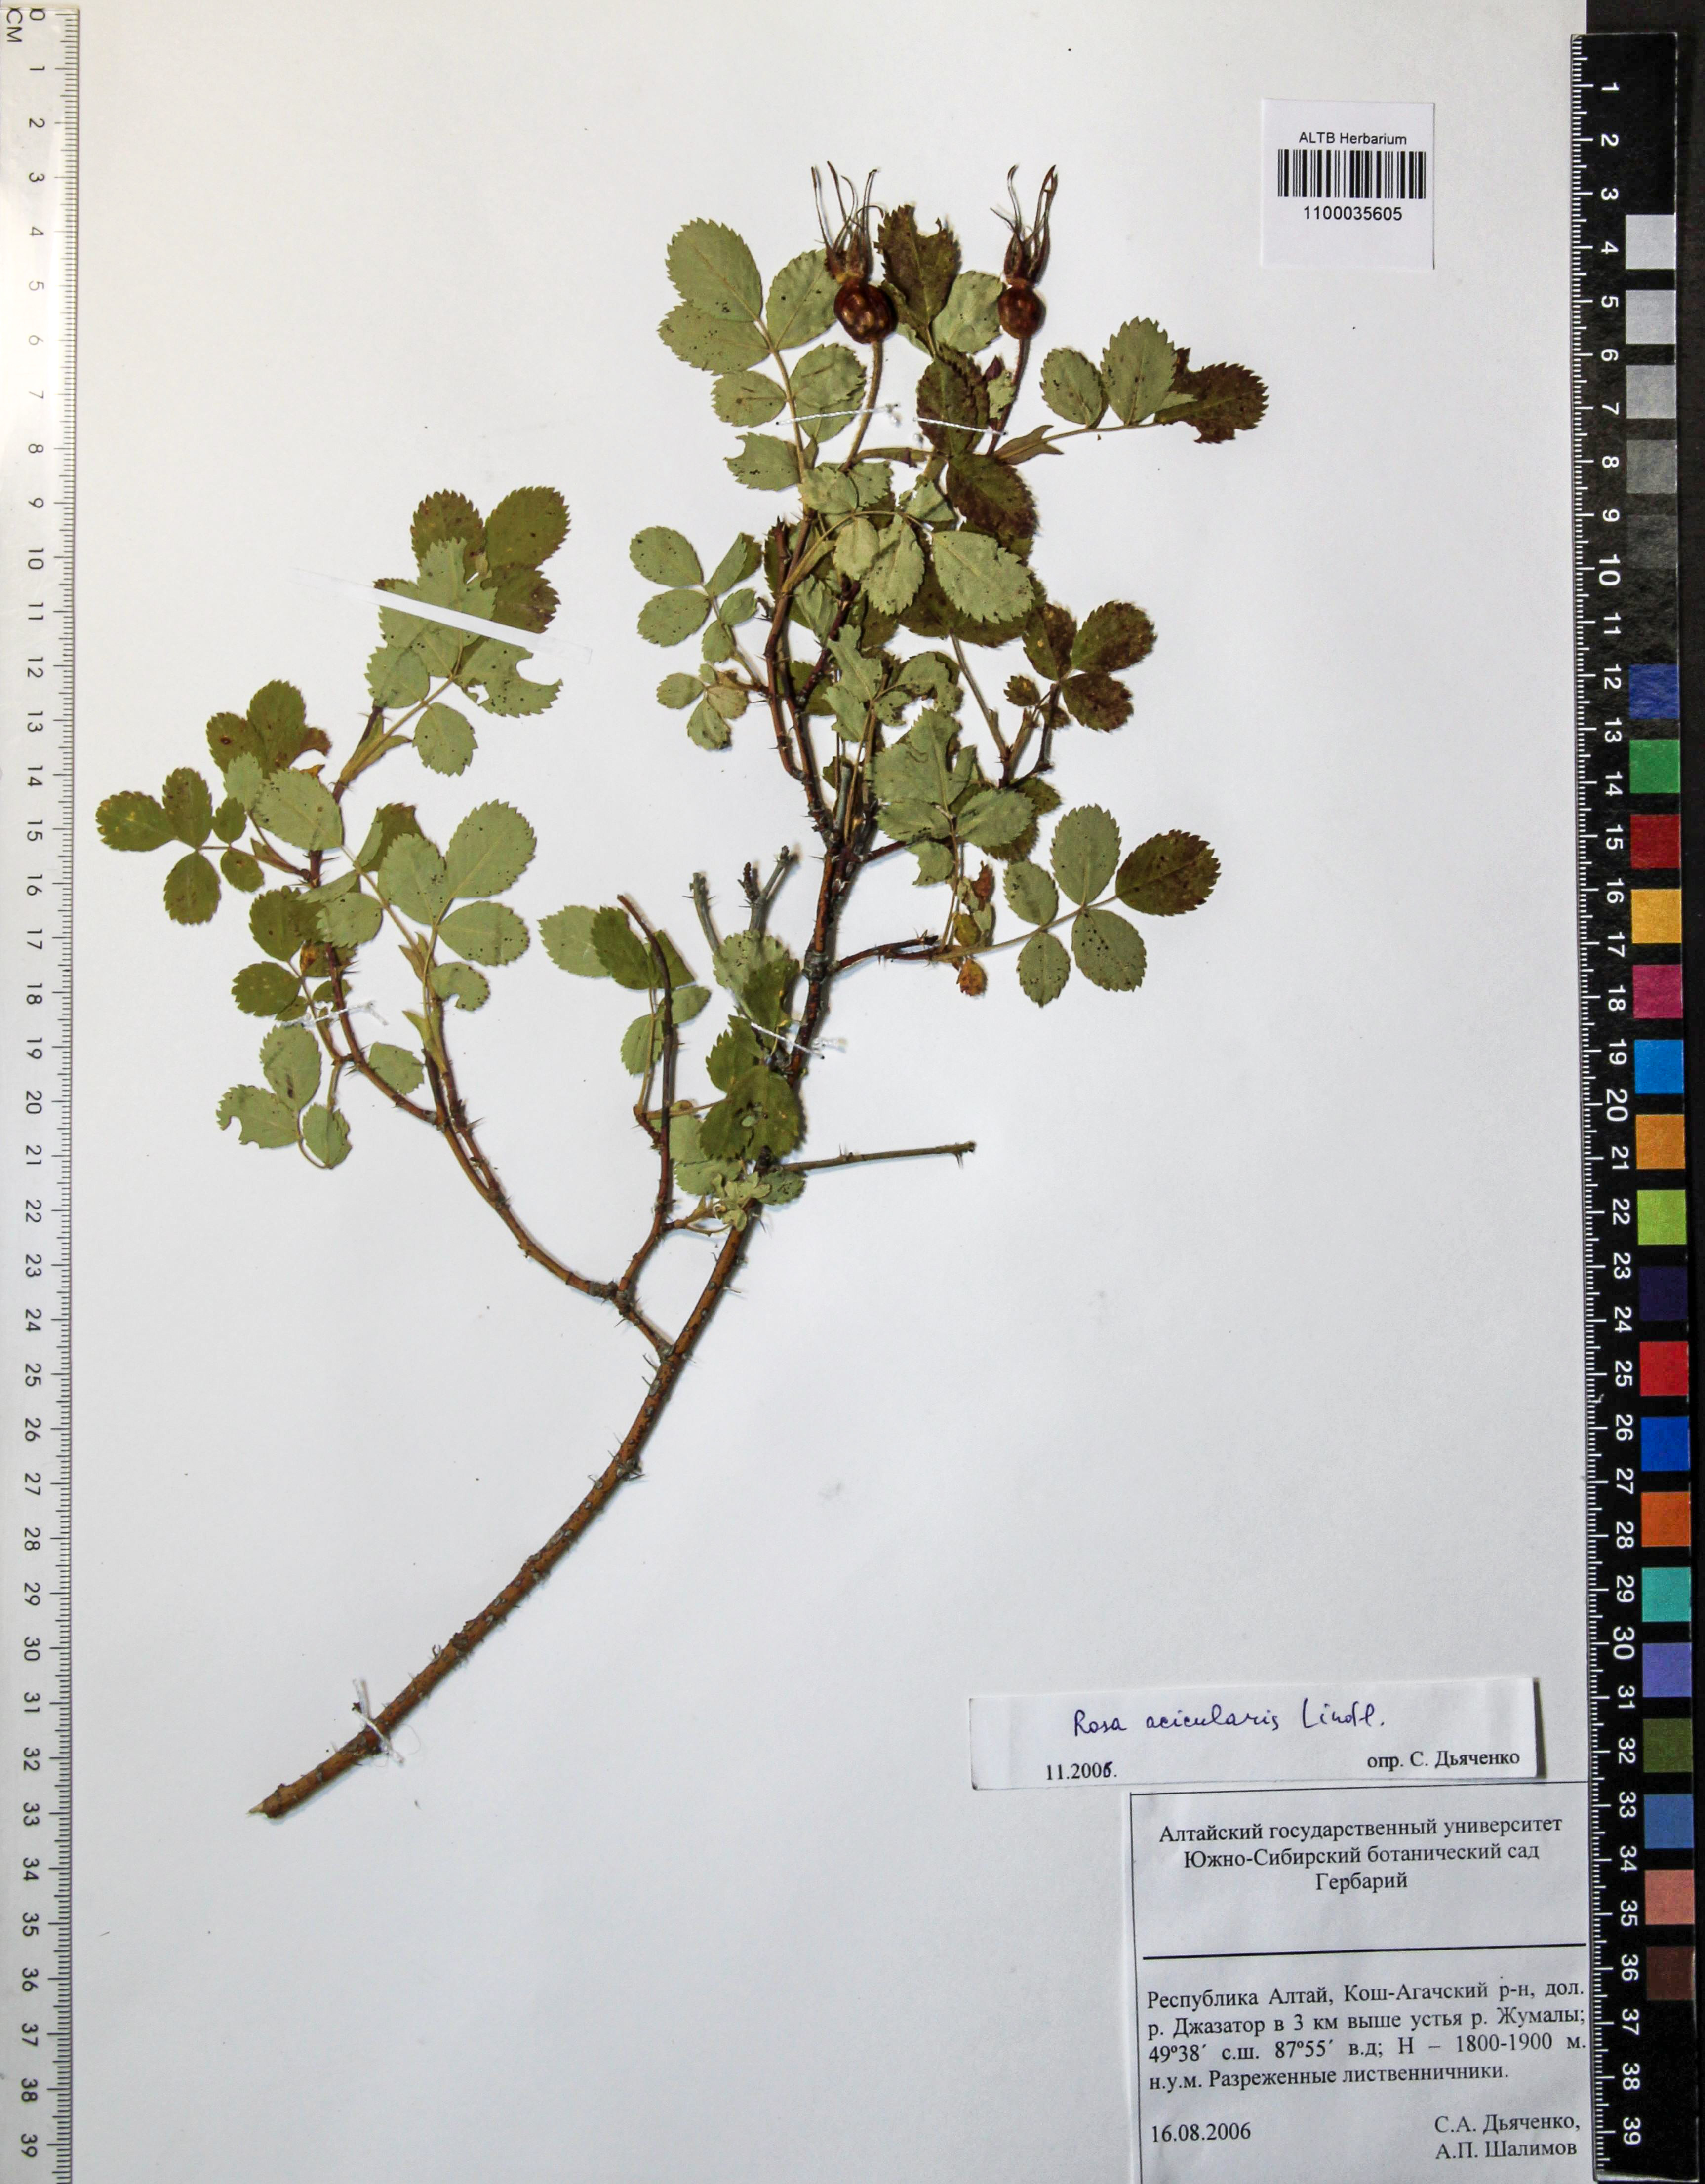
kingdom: Plantae
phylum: Tracheophyta
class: Magnoliopsida
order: Rosales
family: Rosaceae
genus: Rosa
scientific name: Rosa acicularis
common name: Prickly rose
